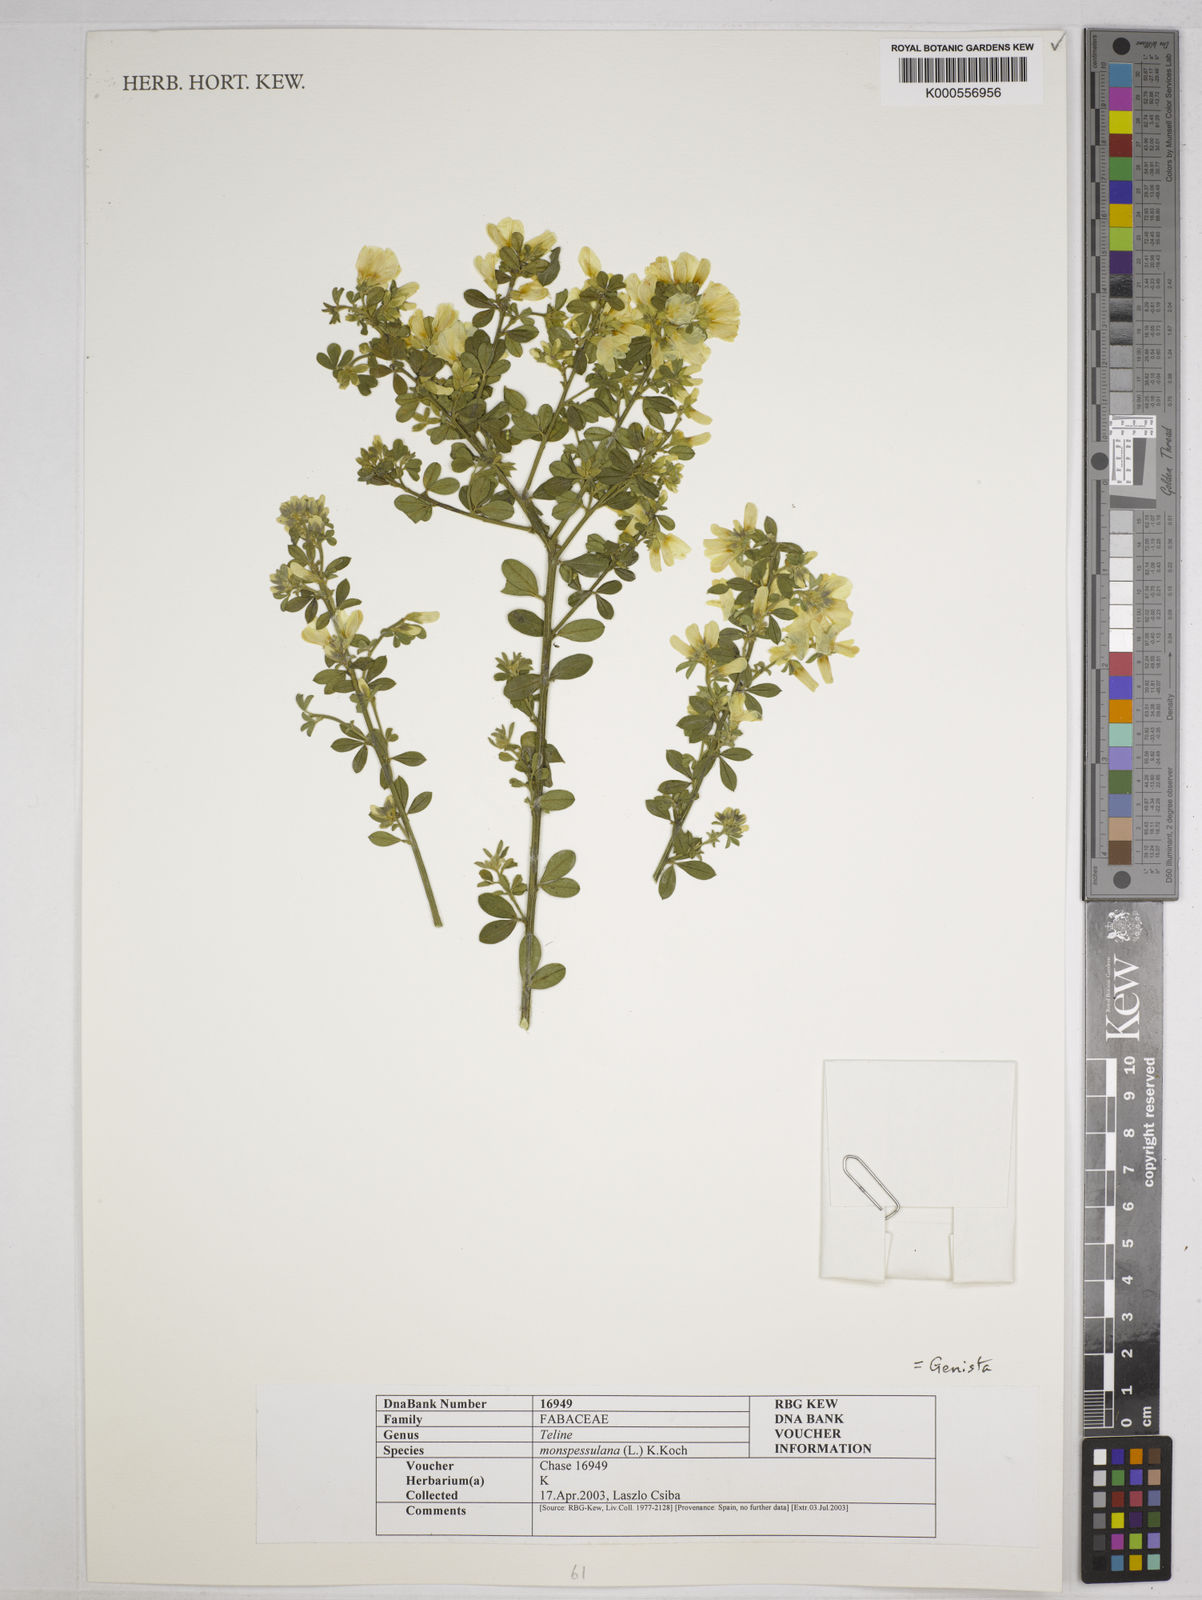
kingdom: Plantae
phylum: Tracheophyta
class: Magnoliopsida
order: Fabales
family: Fabaceae
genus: Genista
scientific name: Genista monspessulana
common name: Montpellier broom
